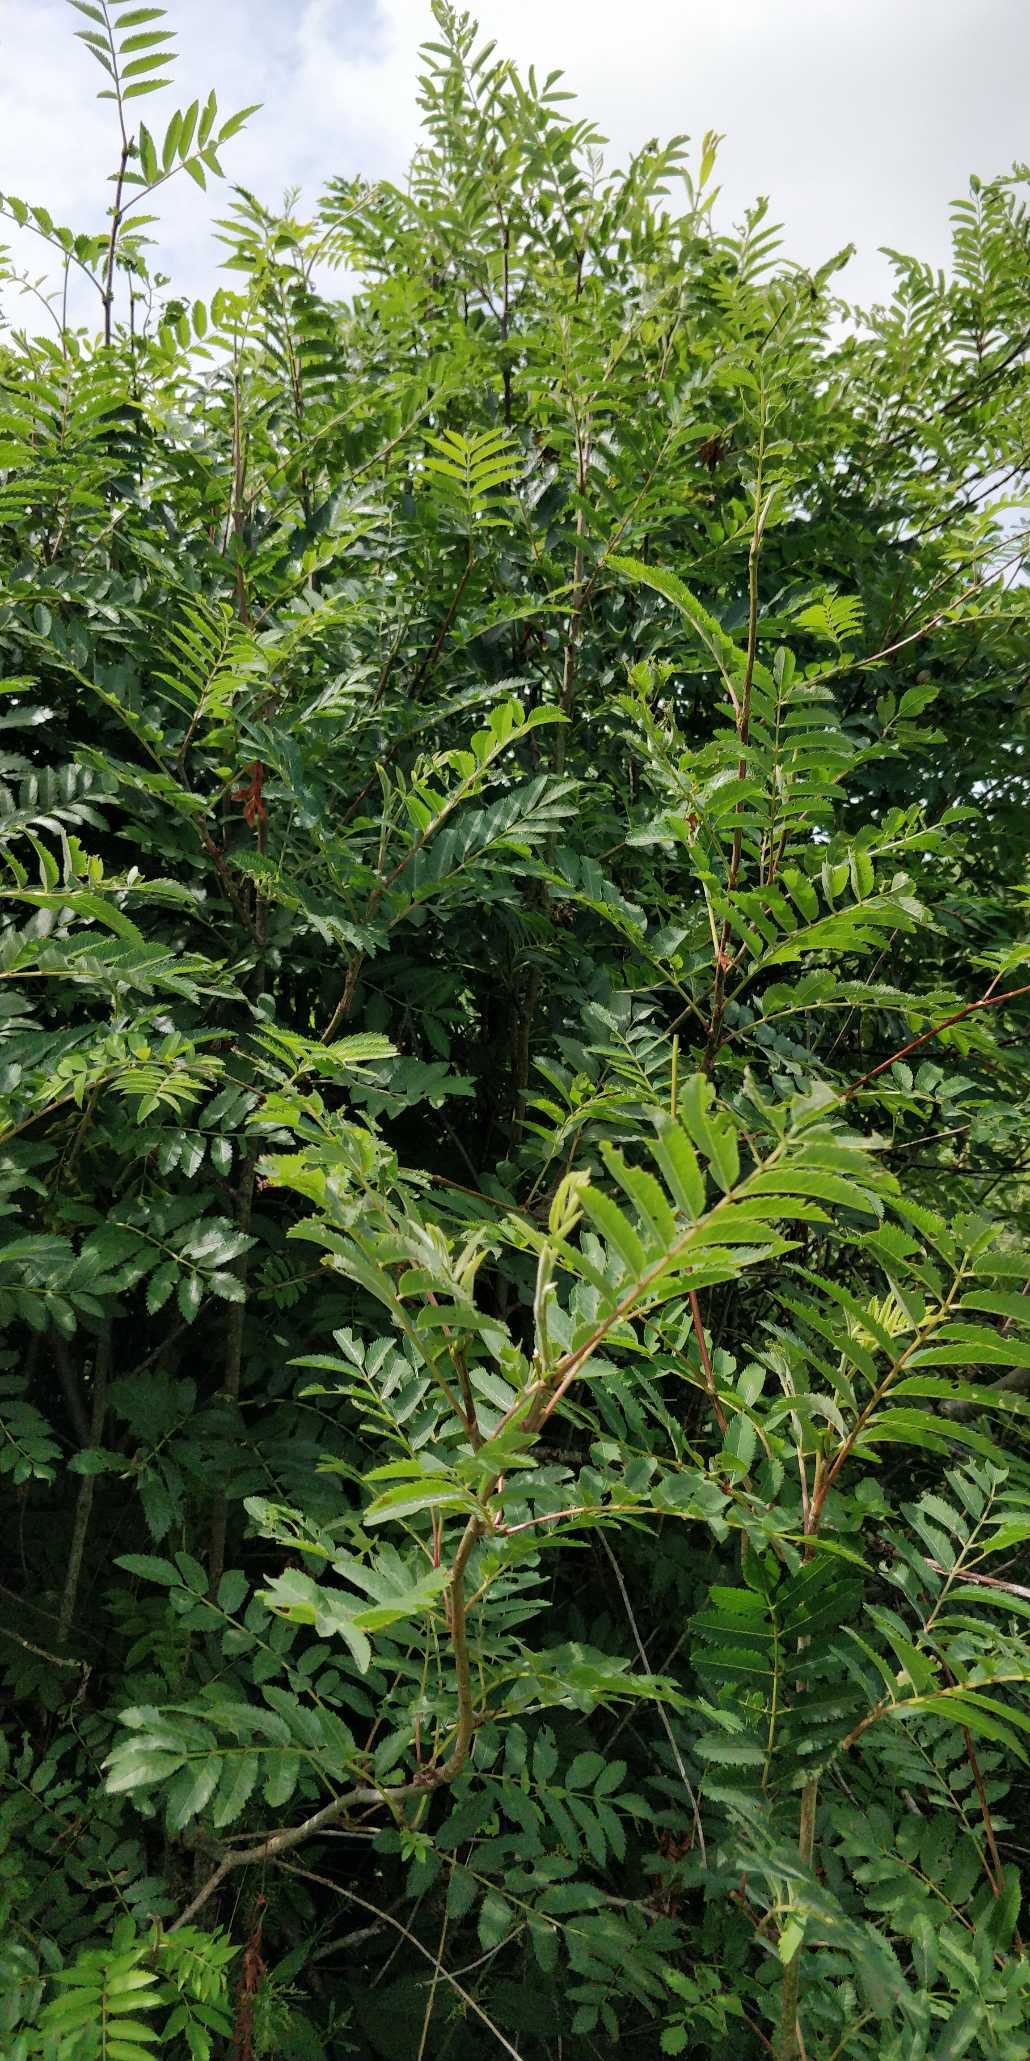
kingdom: Plantae
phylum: Tracheophyta
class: Magnoliopsida
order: Rosales
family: Rosaceae
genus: Sorbus
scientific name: Sorbus aucuparia
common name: Almindelig røn
